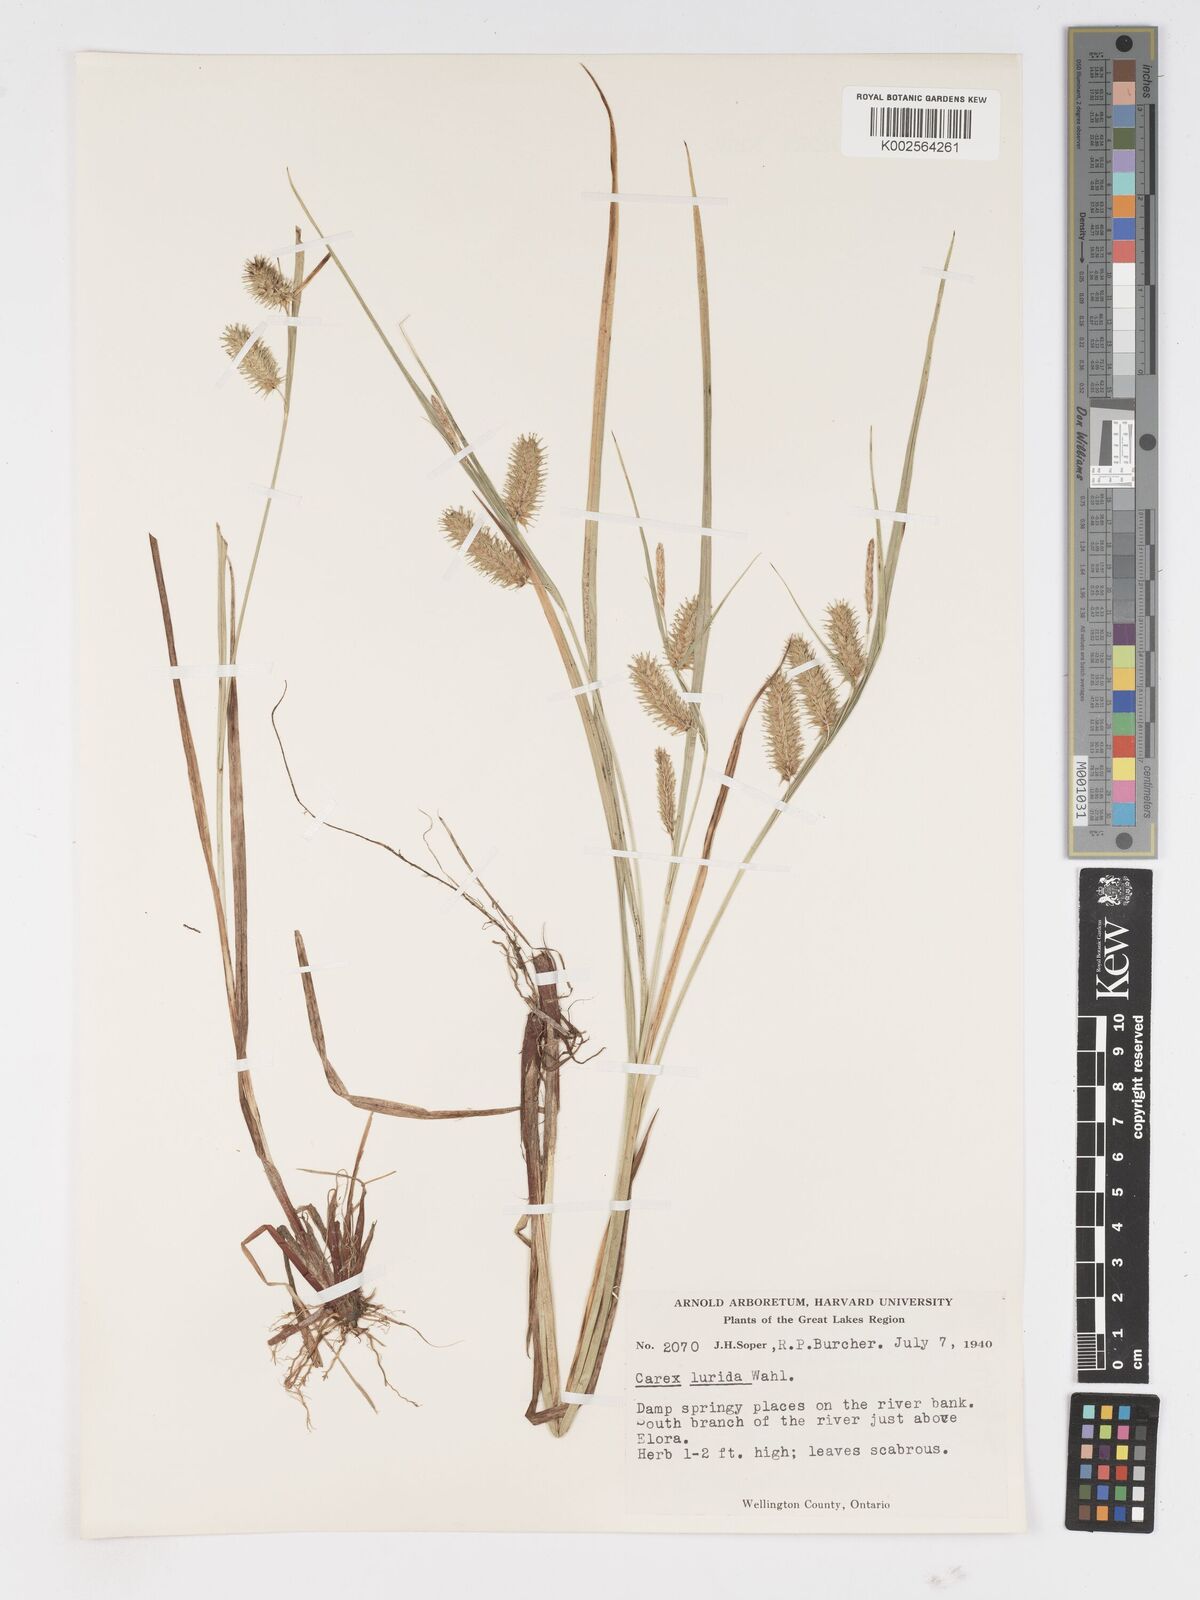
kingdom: Plantae
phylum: Tracheophyta
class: Liliopsida
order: Poales
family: Cyperaceae
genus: Carex
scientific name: Carex lurida
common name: Sallow sedge
